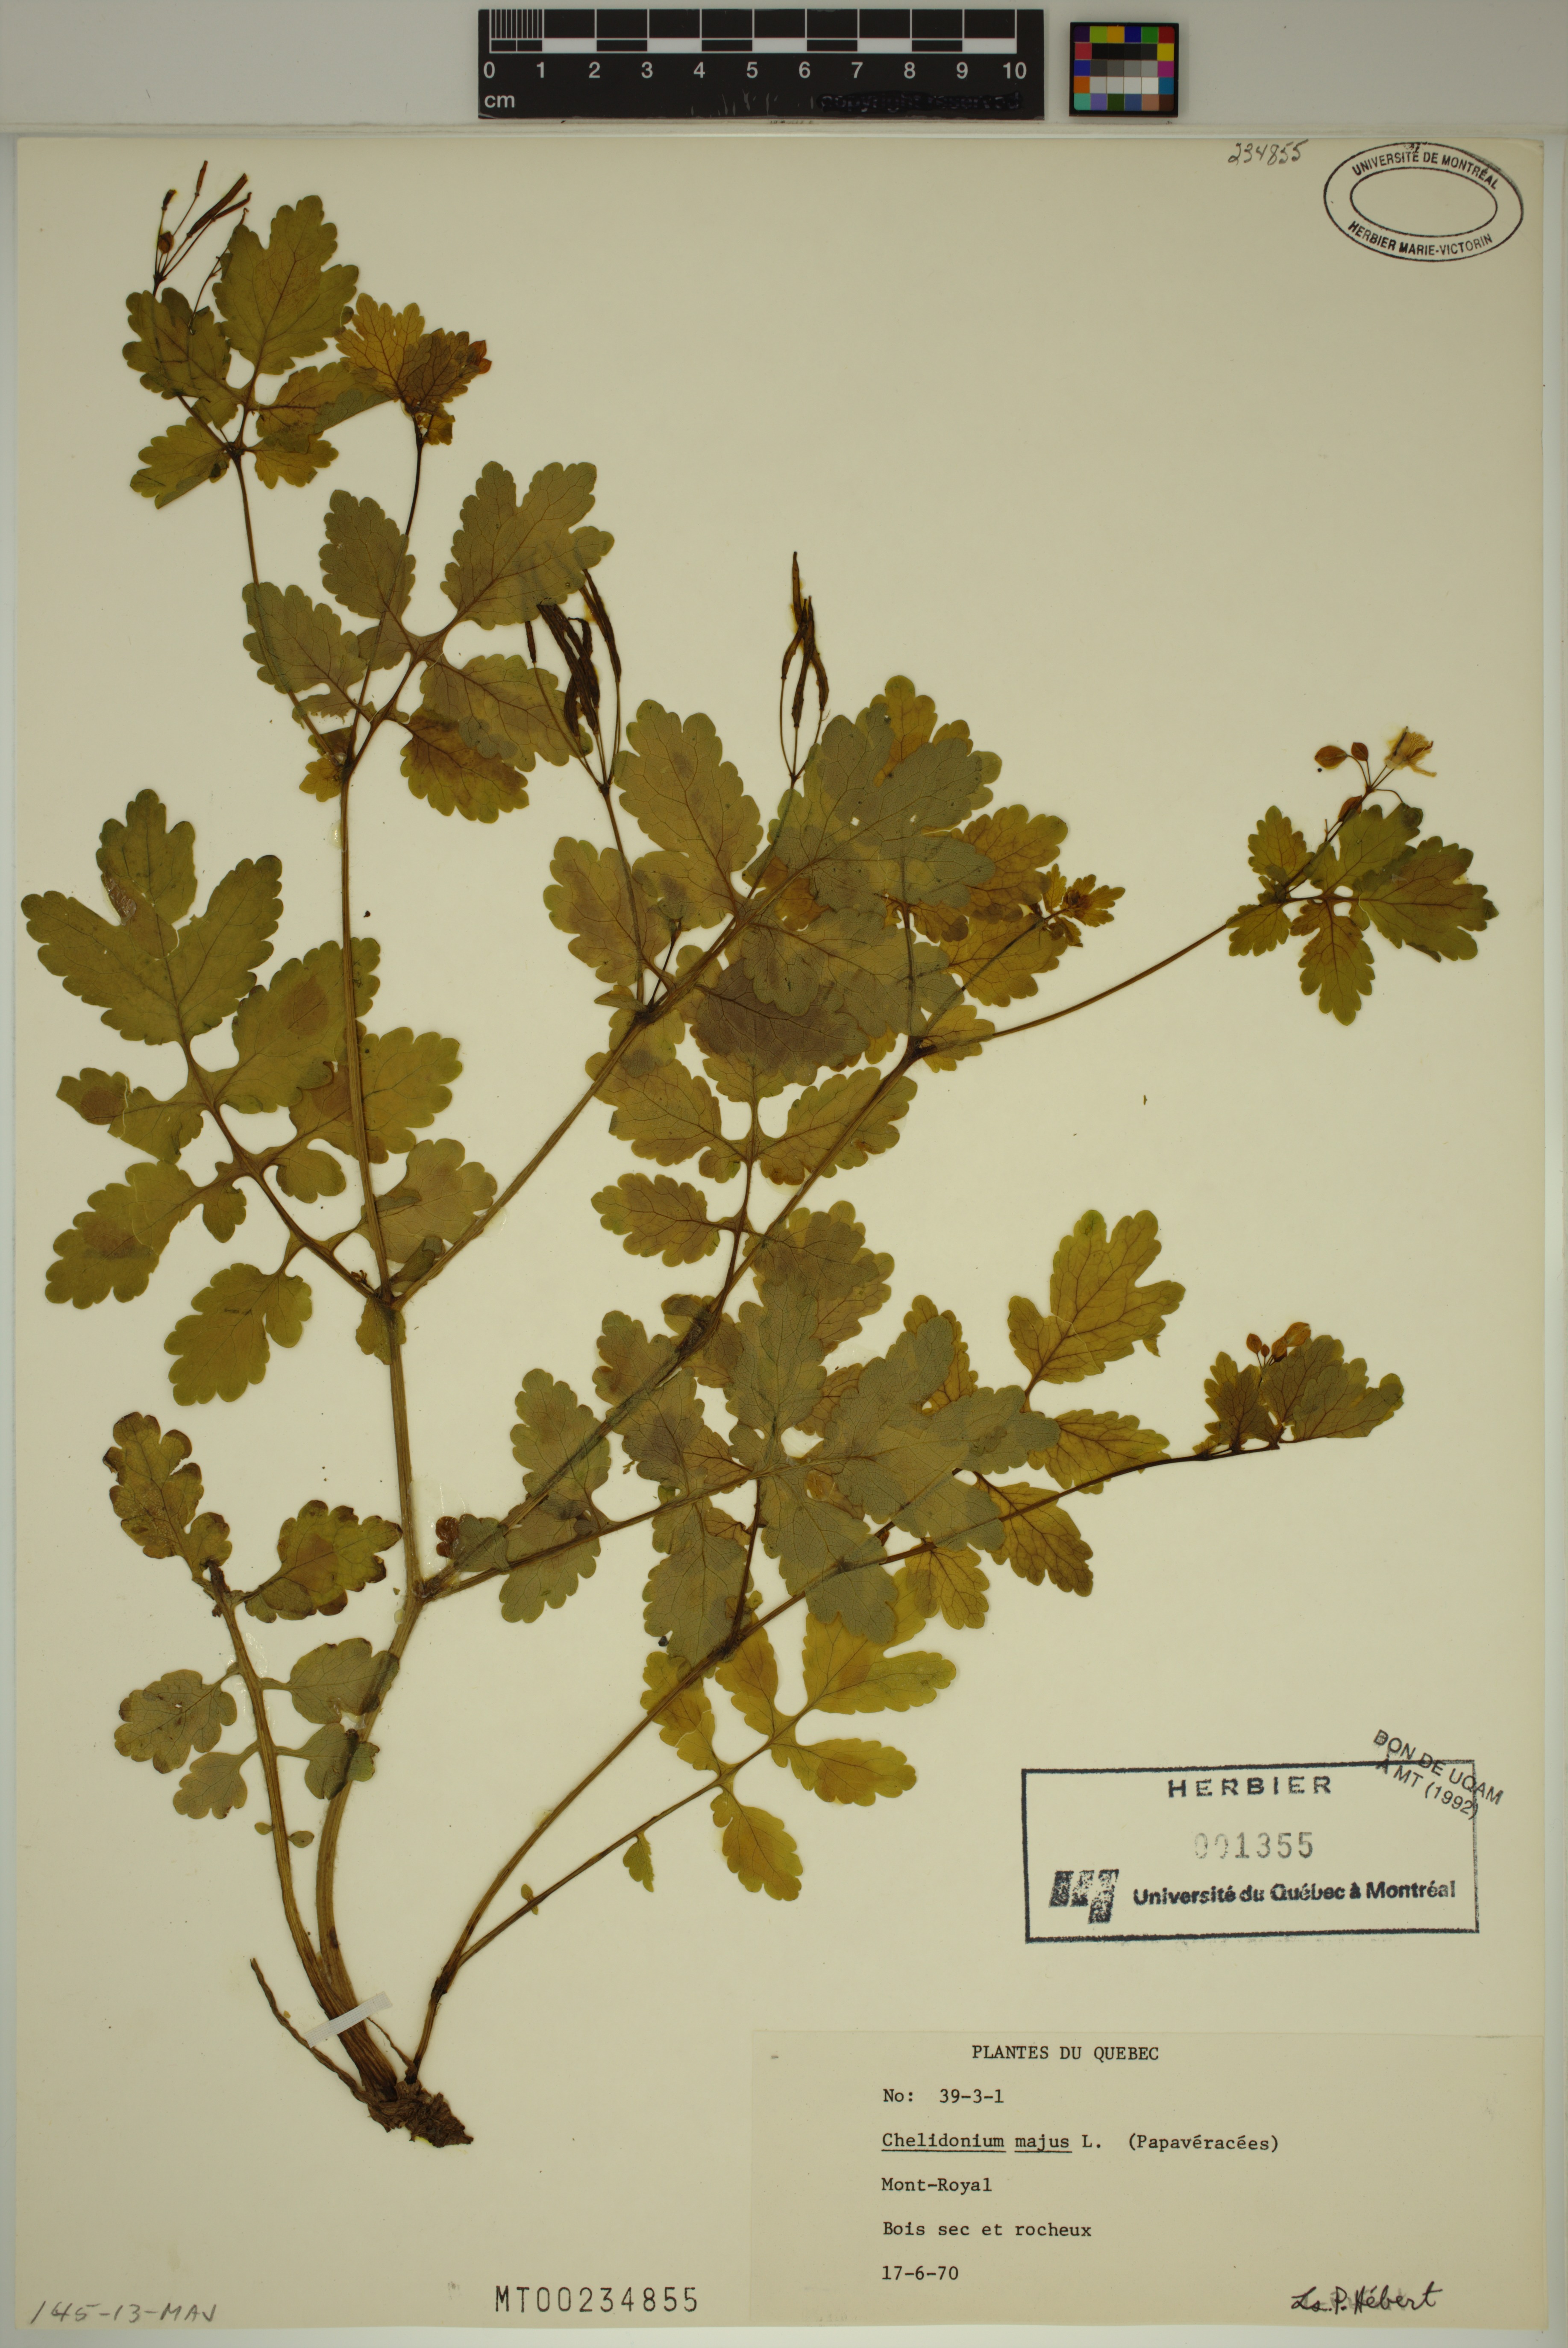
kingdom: Plantae
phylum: Tracheophyta
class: Magnoliopsida
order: Ranunculales
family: Papaveraceae
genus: Chelidonium
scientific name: Chelidonium majus
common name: Greater celandine
